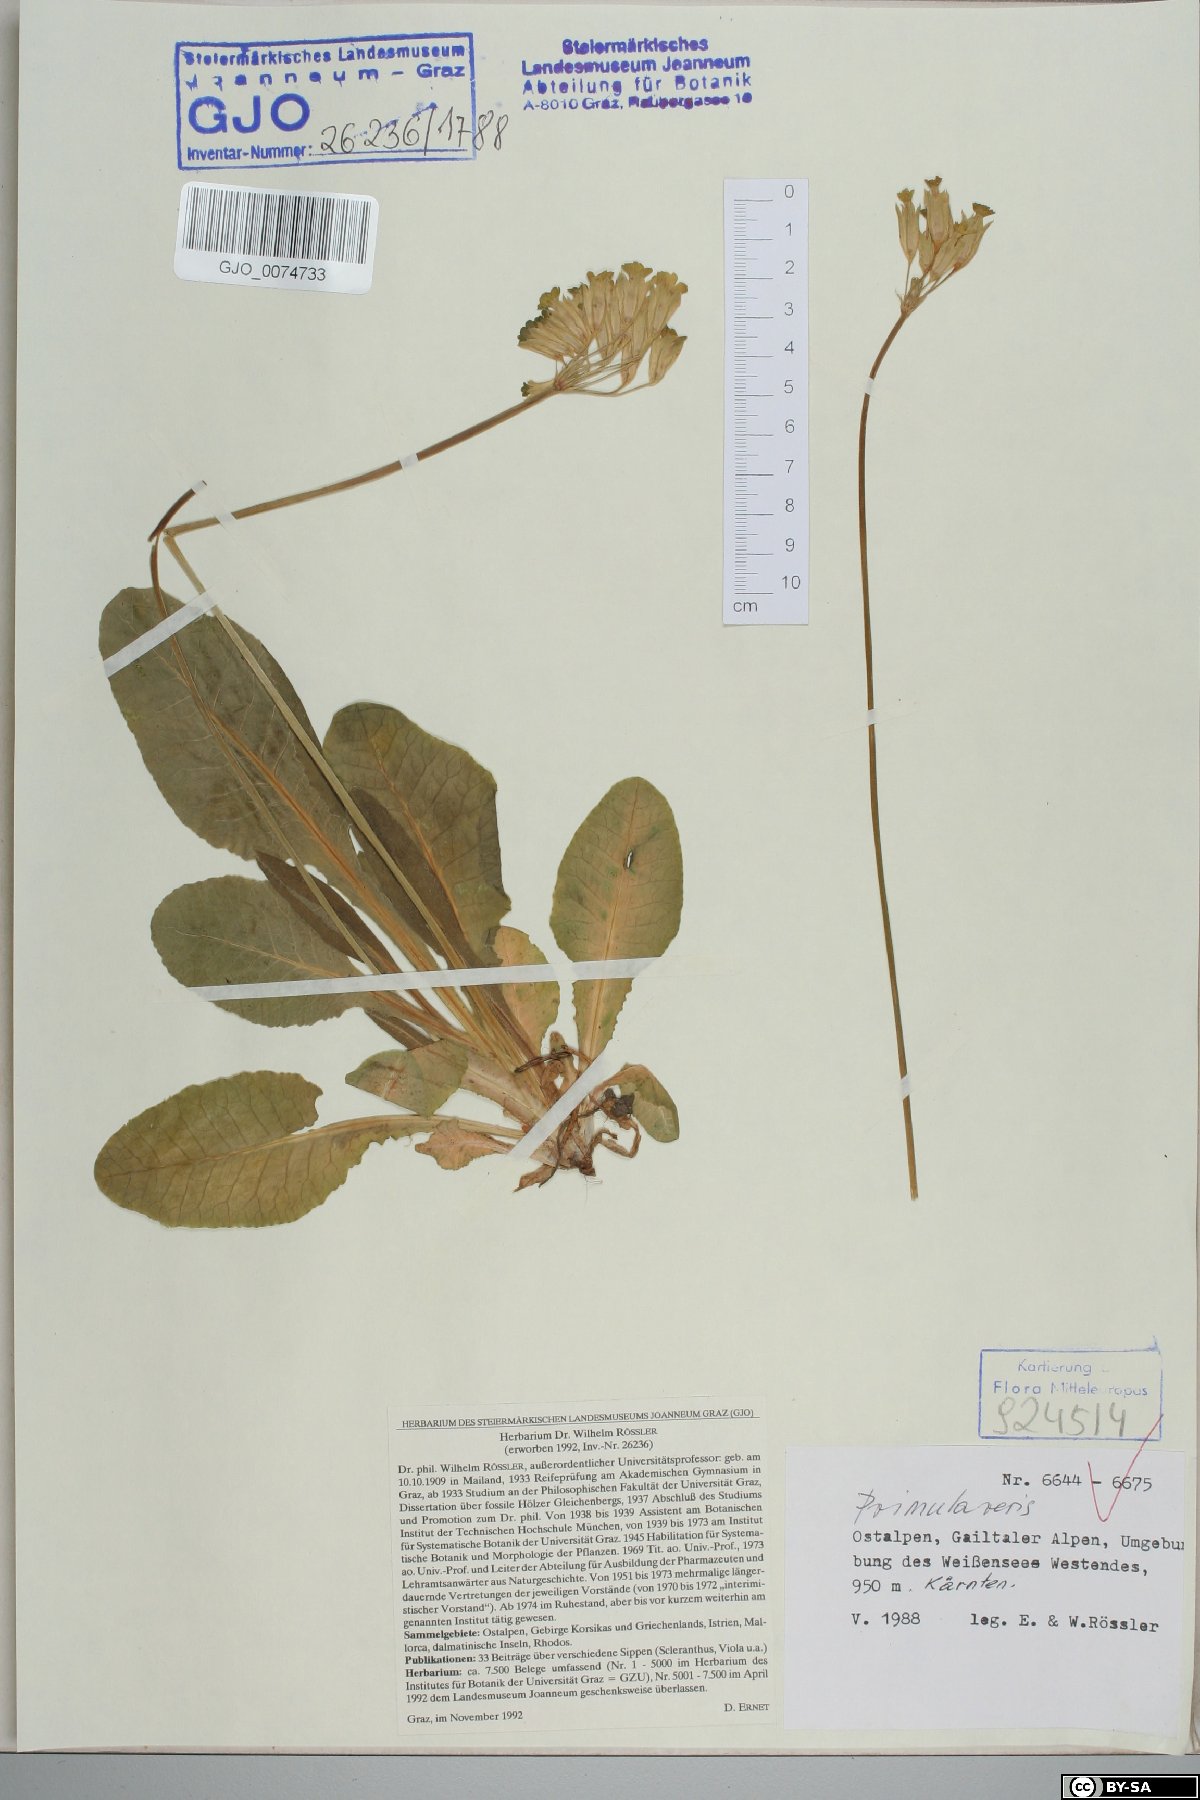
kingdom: Plantae
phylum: Tracheophyta
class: Magnoliopsida
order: Ericales
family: Primulaceae
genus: Primula
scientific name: Primula veris
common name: Cowslip
